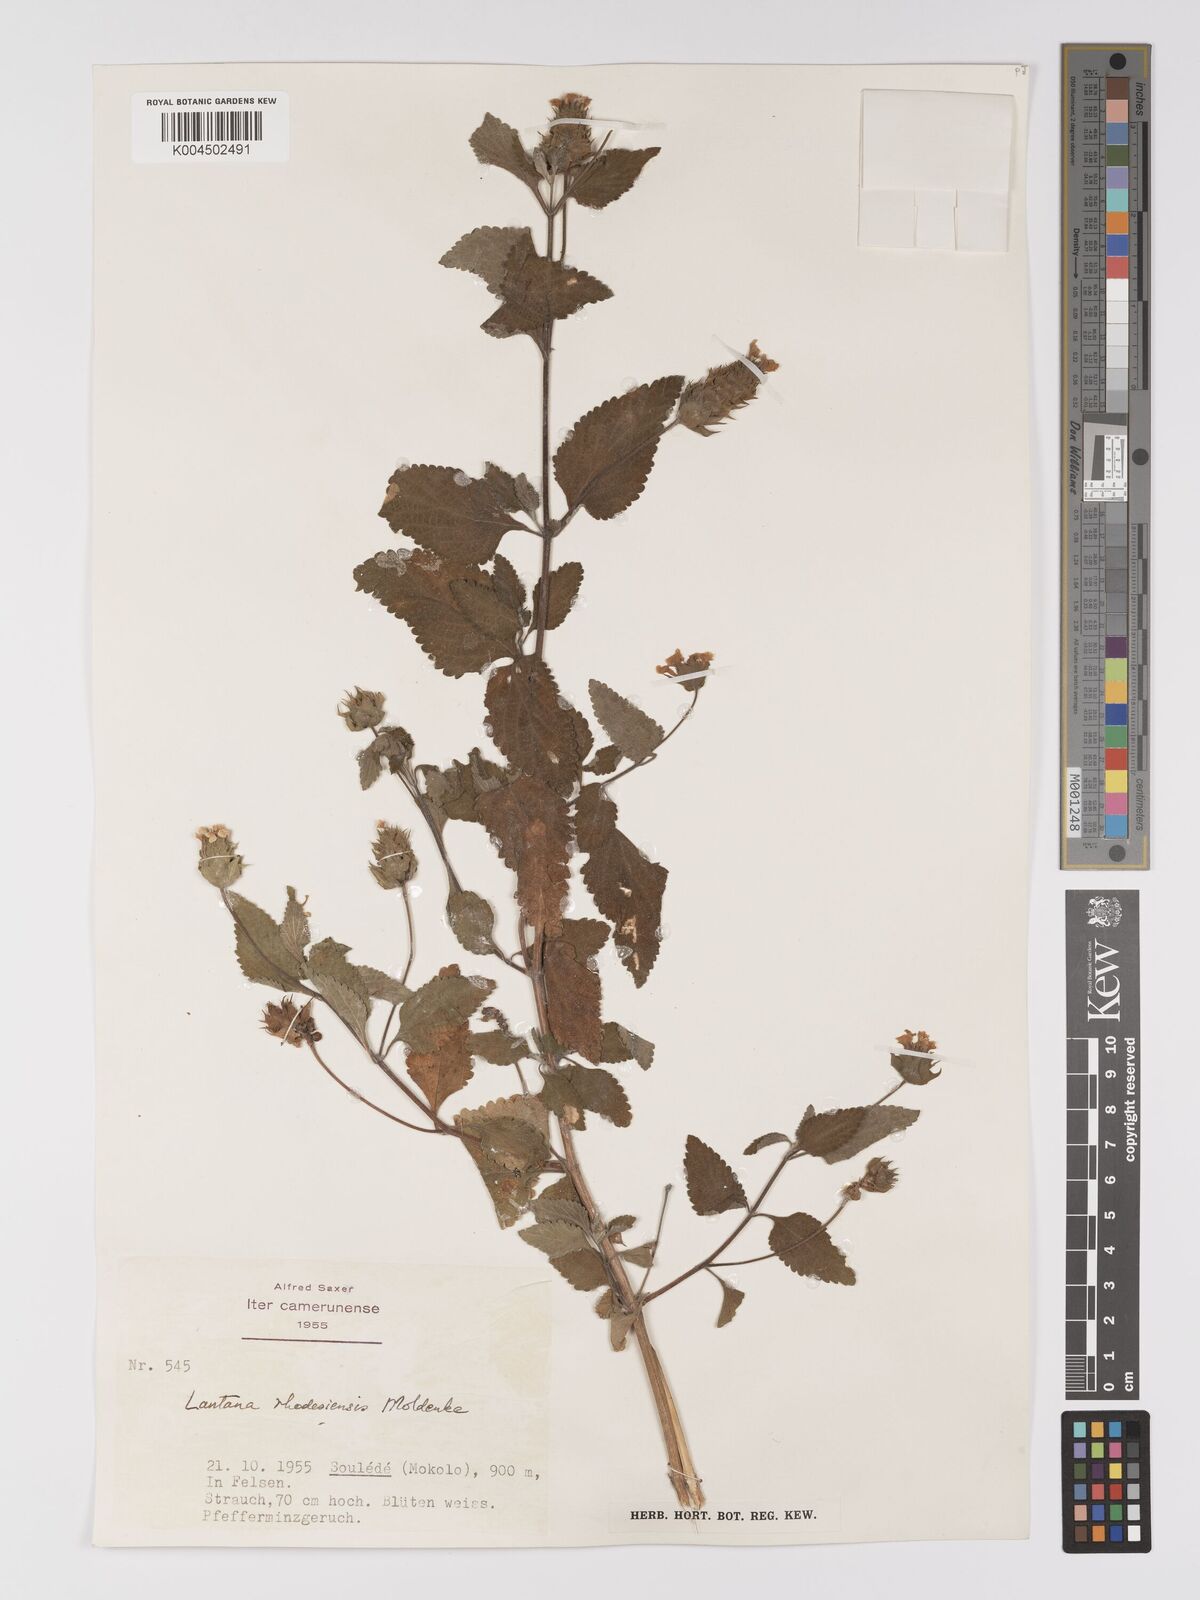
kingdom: Plantae
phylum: Tracheophyta
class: Magnoliopsida
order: Lamiales
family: Verbenaceae
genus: Lantana
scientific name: Lantana ukambensis
